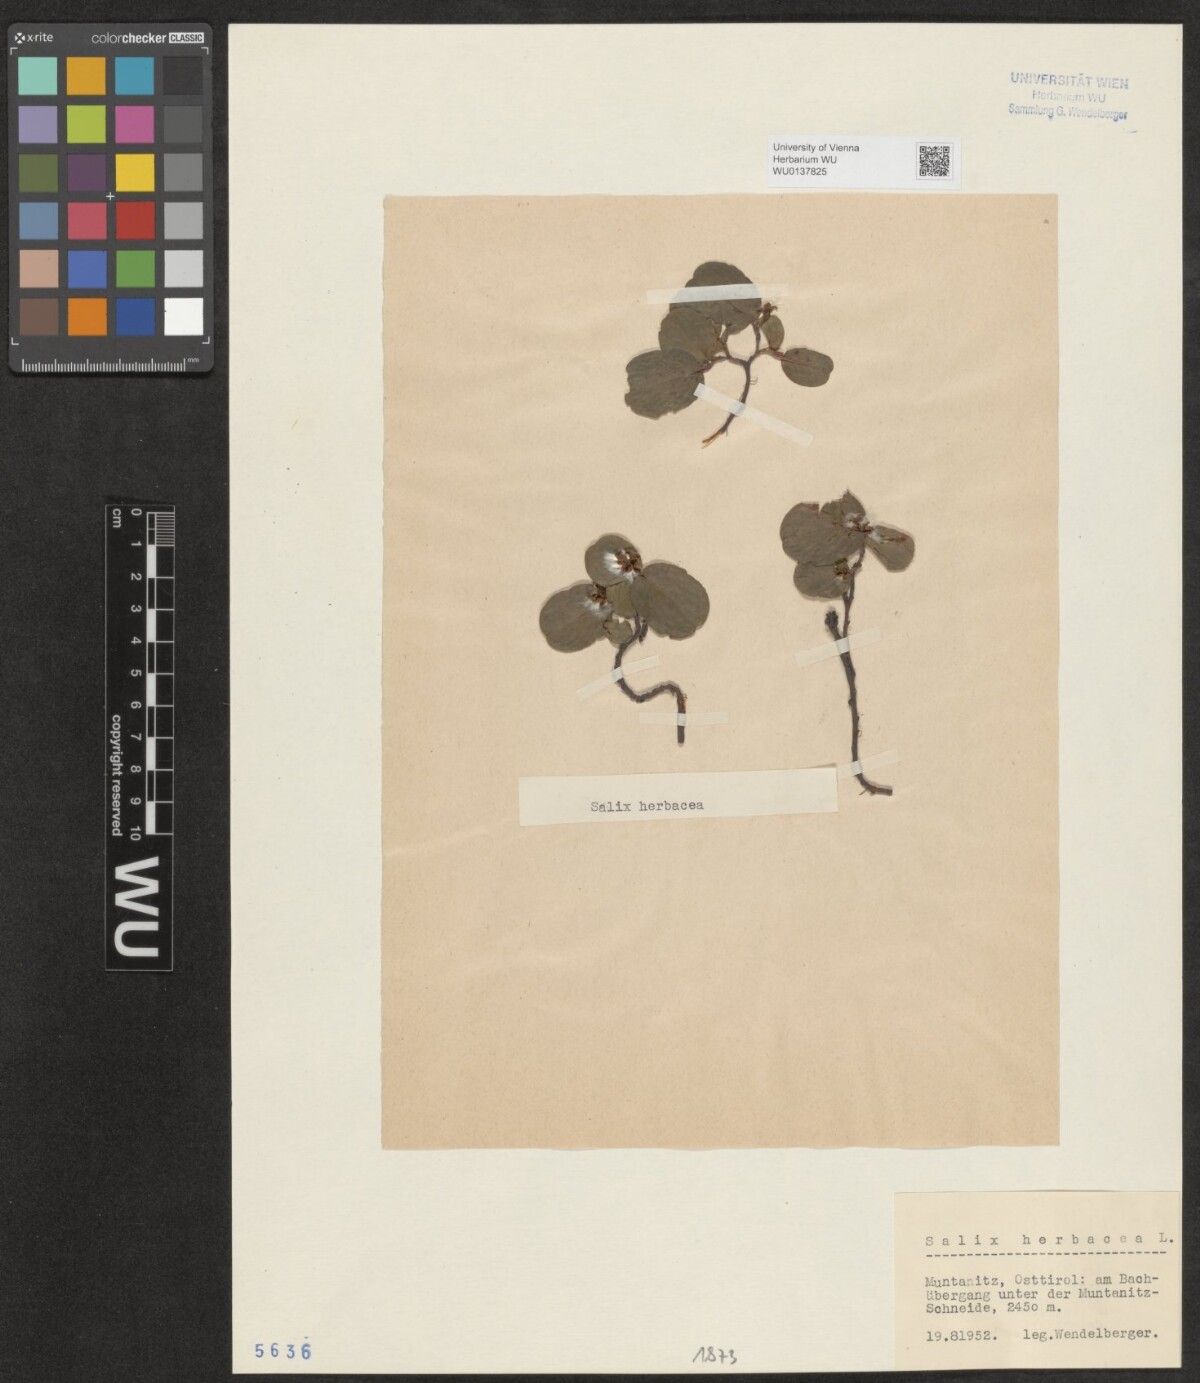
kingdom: Plantae
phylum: Tracheophyta
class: Magnoliopsida
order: Malpighiales
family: Salicaceae
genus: Salix
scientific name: Salix herbacea
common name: Dwarf willow
